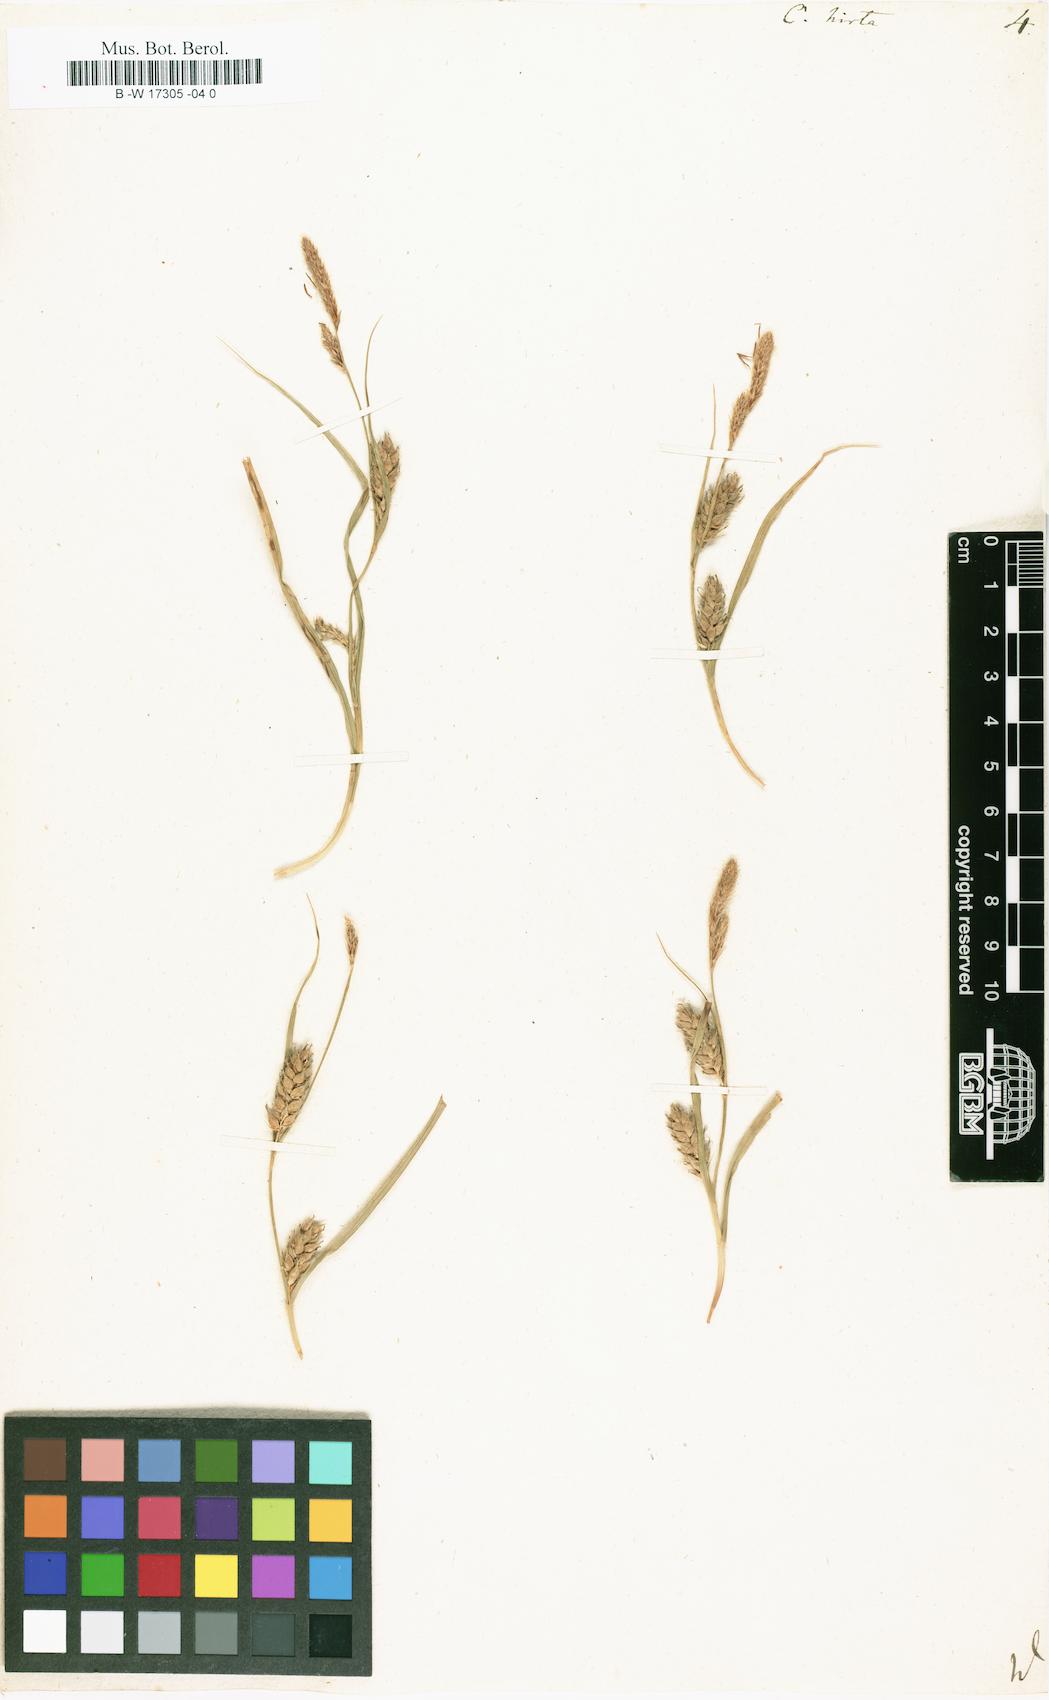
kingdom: Plantae
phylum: Tracheophyta
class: Liliopsida
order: Poales
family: Cyperaceae
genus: Carex
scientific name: Carex hirta
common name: Hairy sedge
